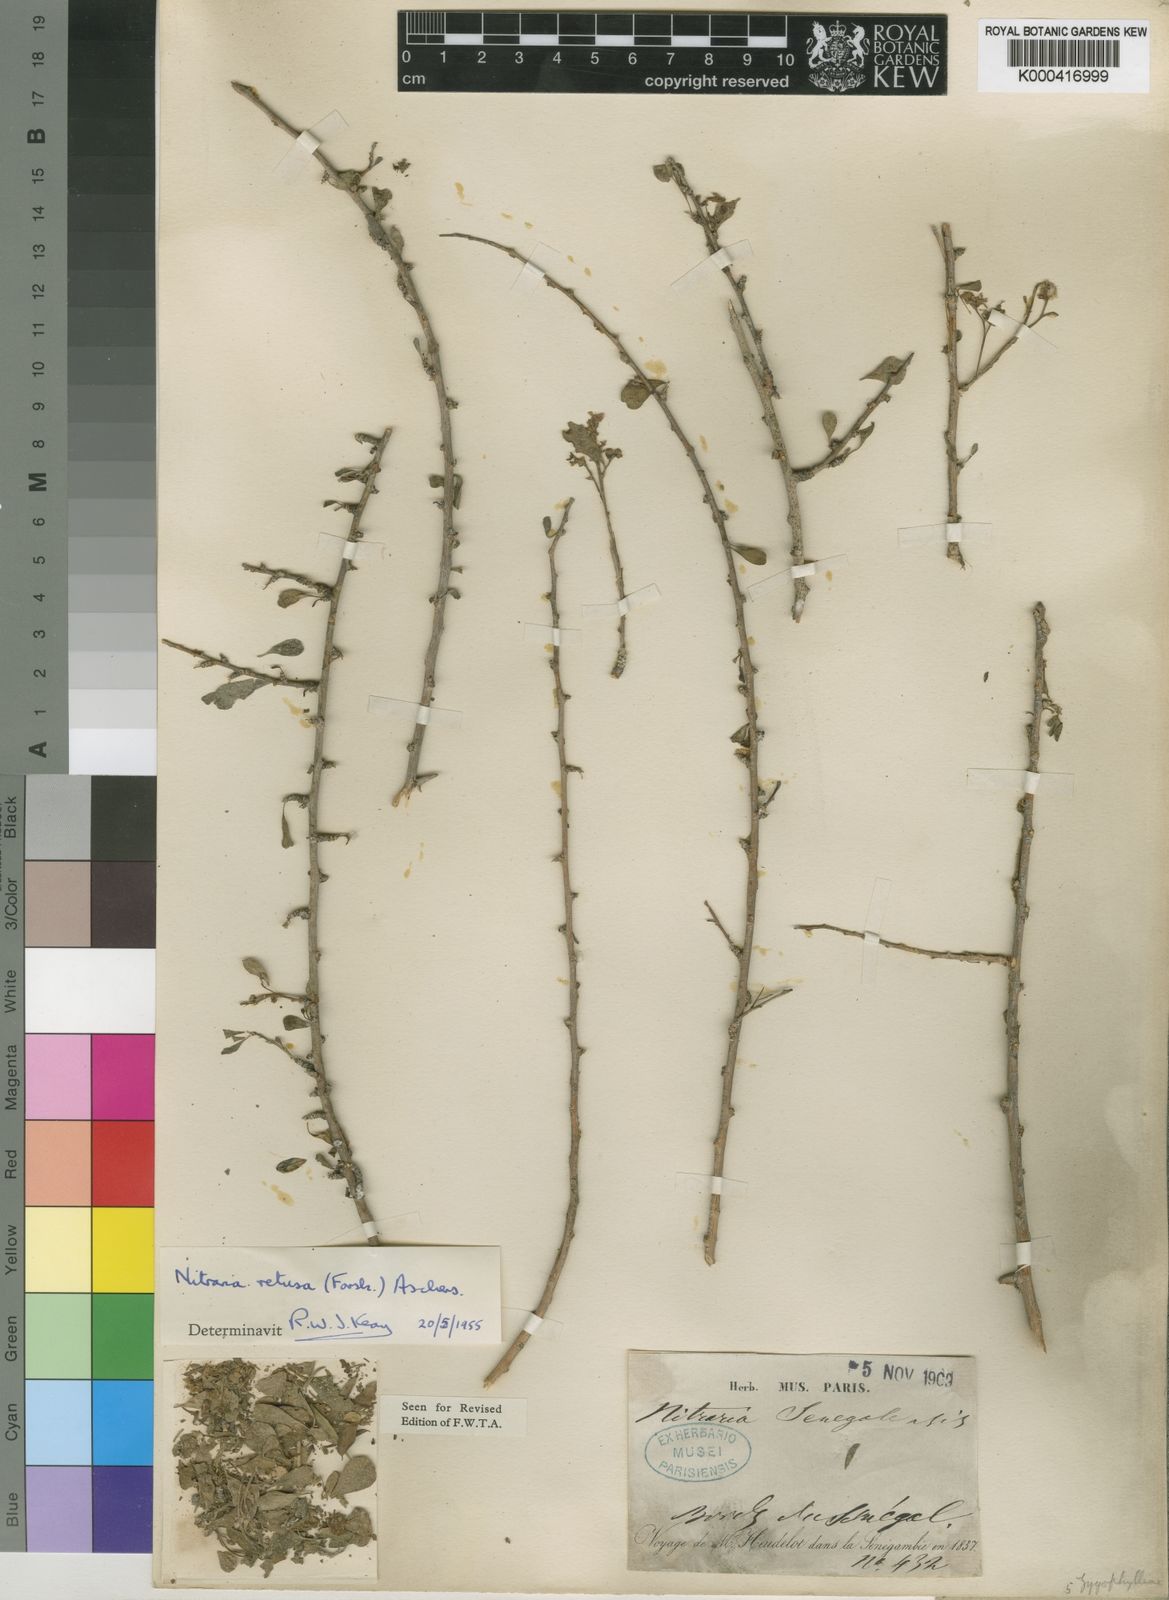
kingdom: Plantae
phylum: Tracheophyta
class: Magnoliopsida
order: Sapindales
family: Nitrariaceae
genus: Nitraria
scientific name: Nitraria retusa
